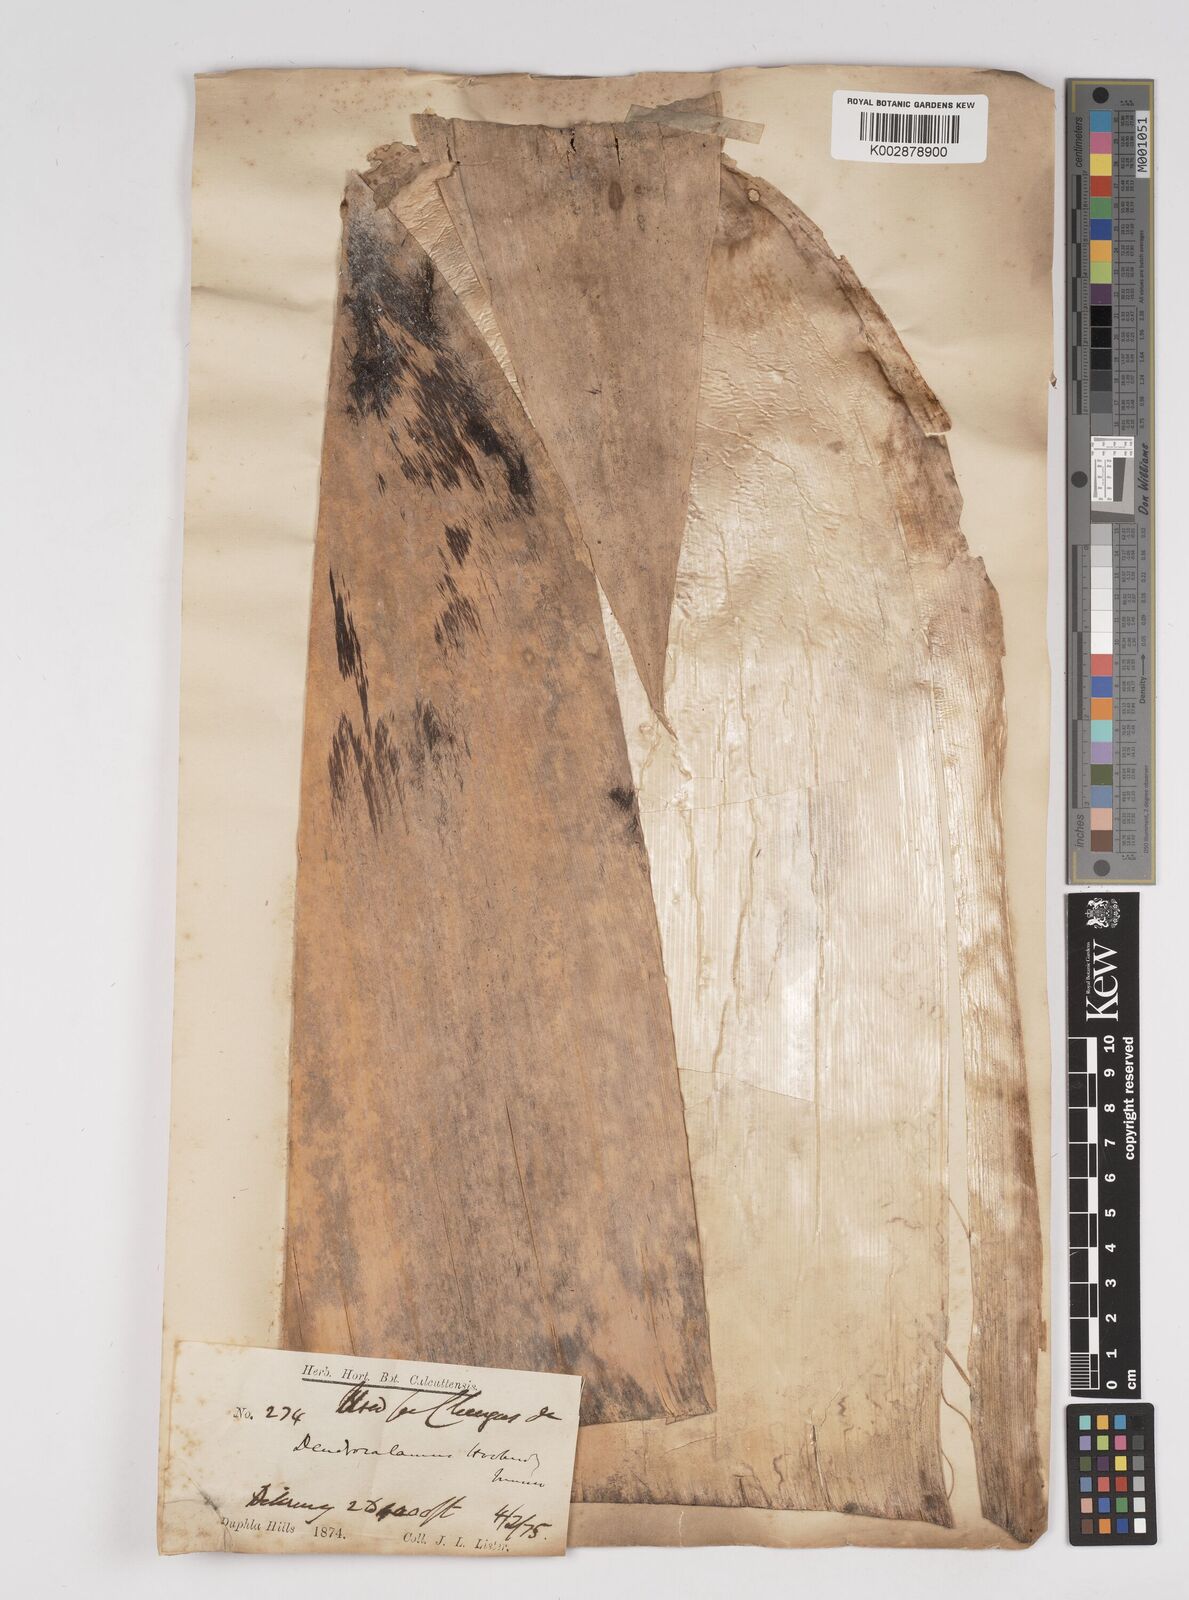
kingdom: Plantae
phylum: Tracheophyta
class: Liliopsida
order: Poales
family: Poaceae
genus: Dendrocalamus
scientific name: Dendrocalamus hookeri
